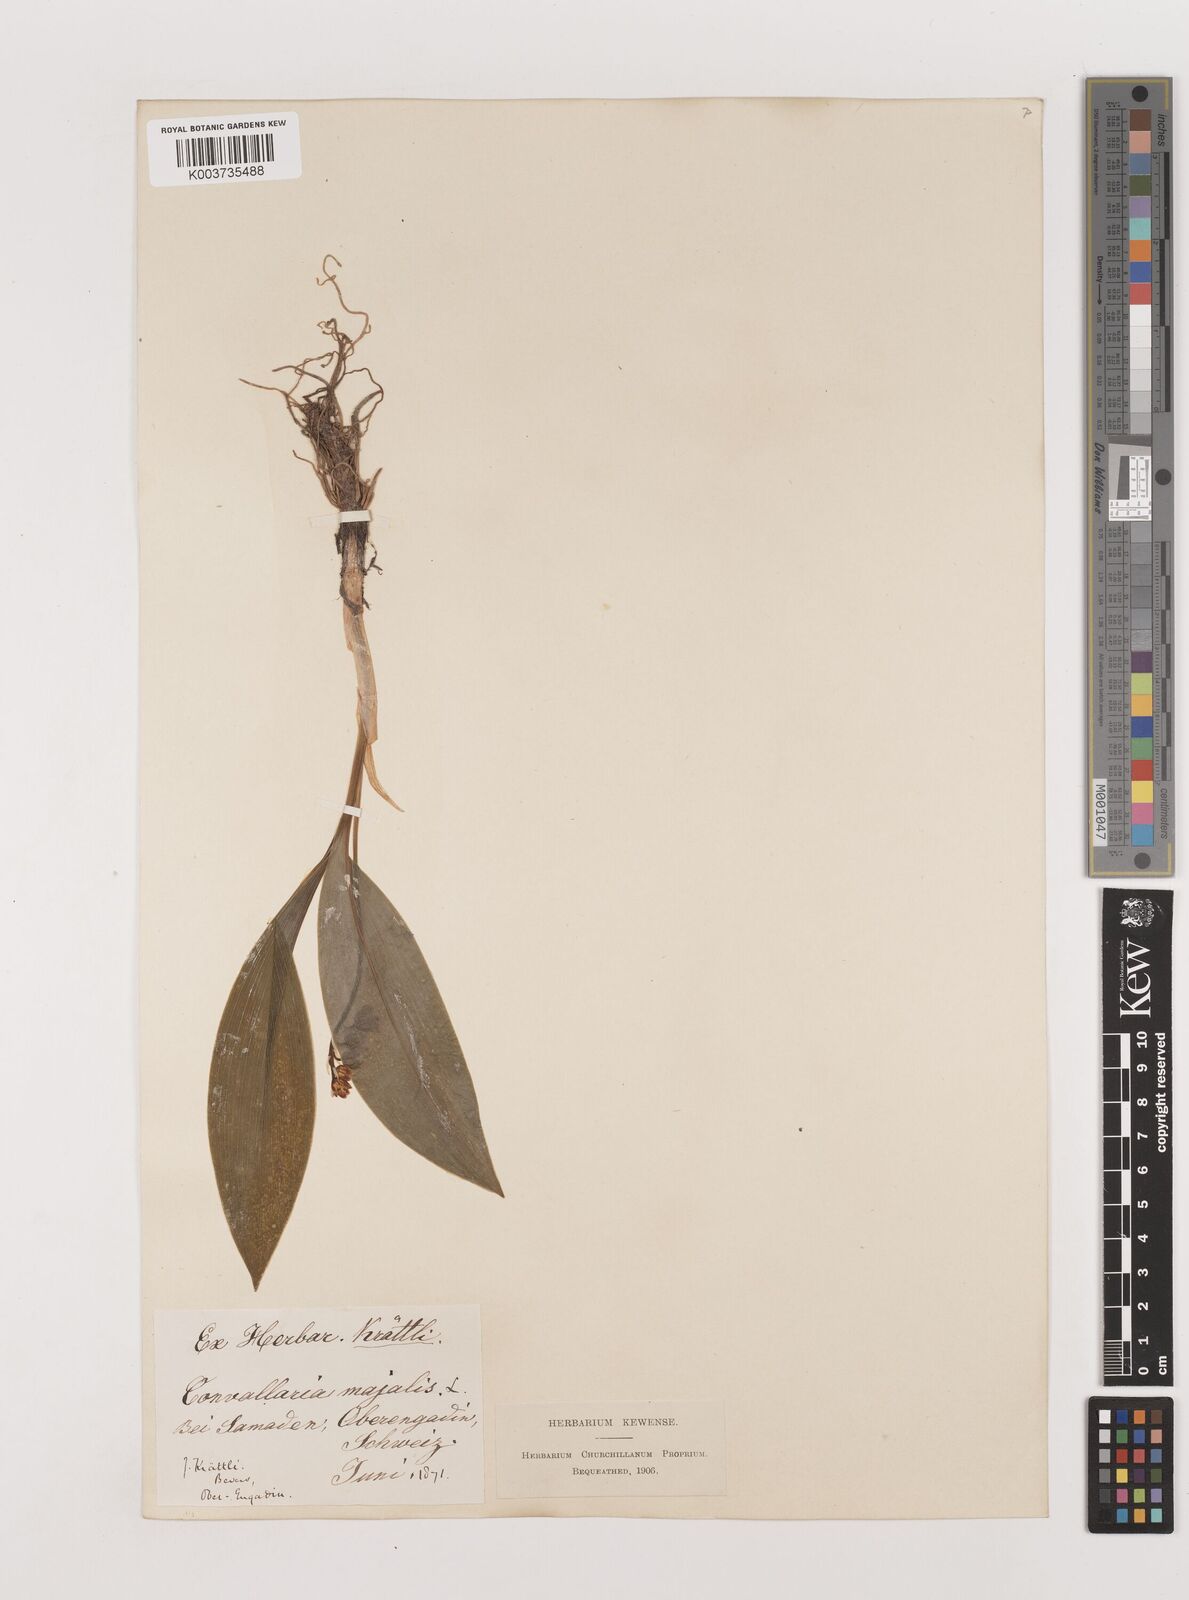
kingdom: Plantae
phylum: Tracheophyta
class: Liliopsida
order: Asparagales
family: Asparagaceae
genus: Convallaria
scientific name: Convallaria majalis
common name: Lily-of-the-valley
